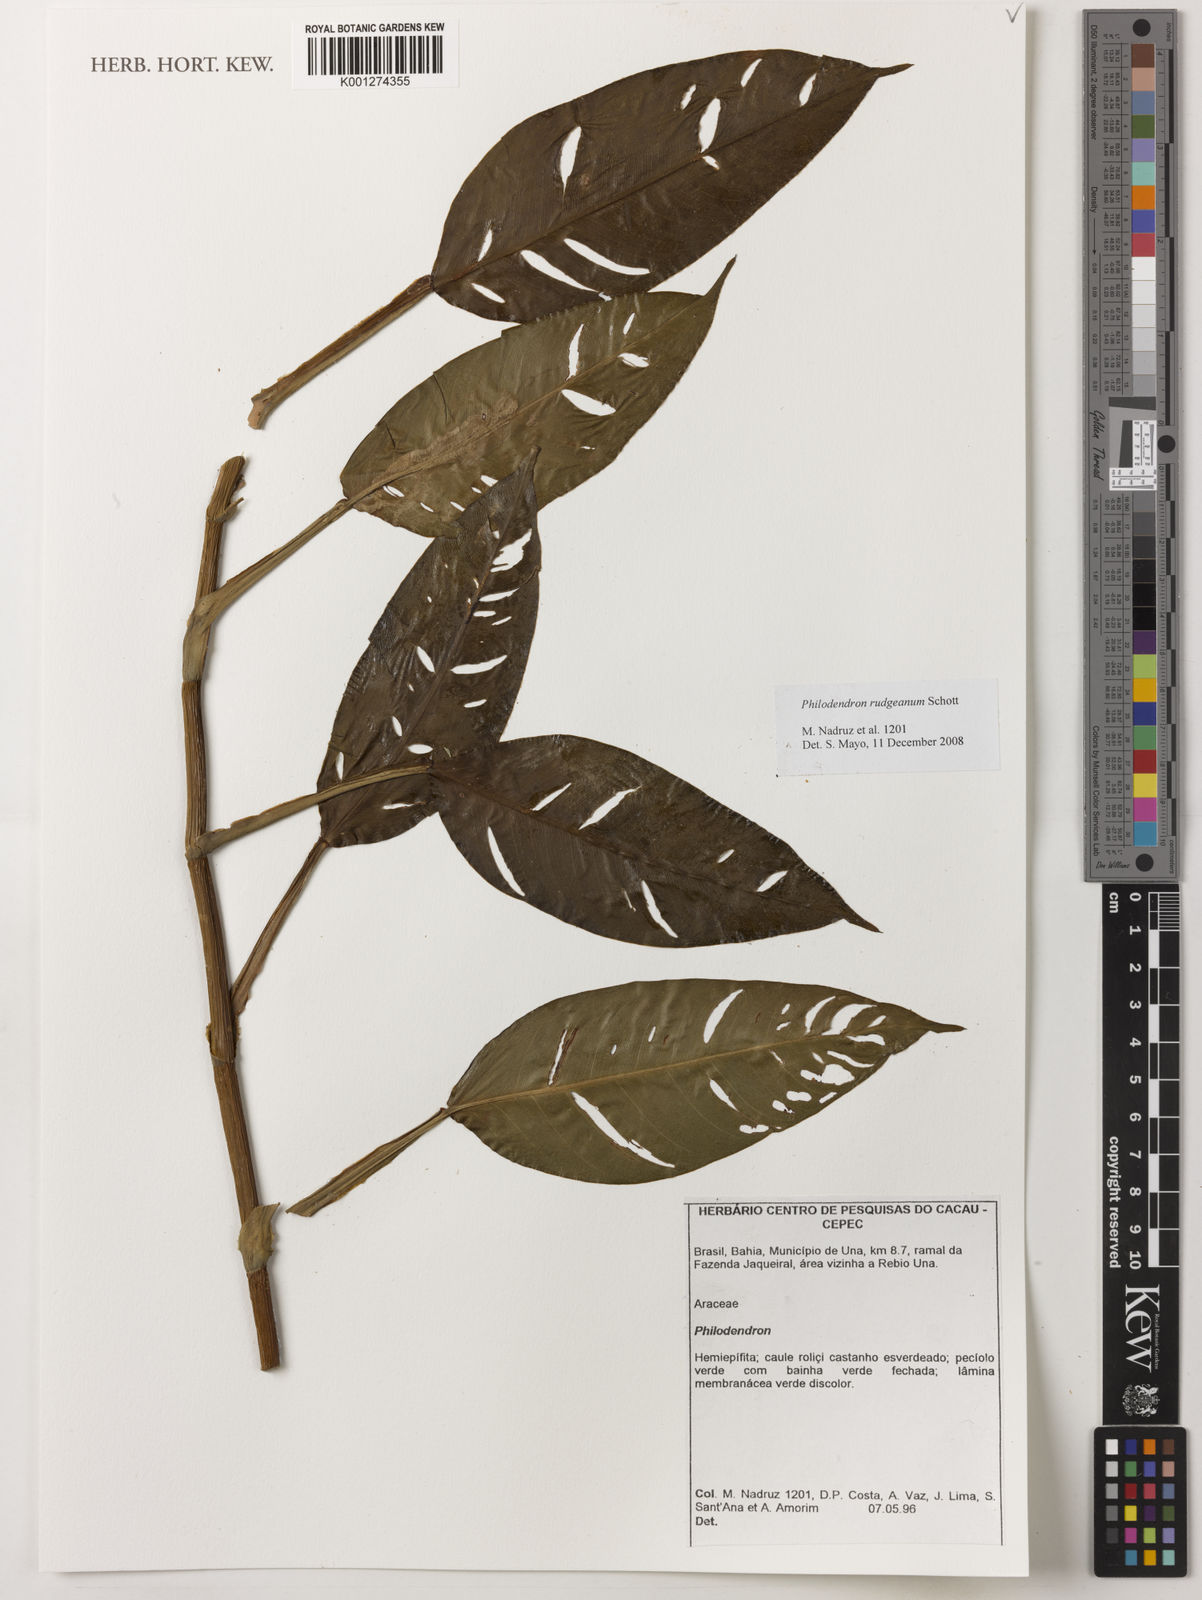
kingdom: Plantae
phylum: Tracheophyta
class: Liliopsida
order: Alismatales
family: Araceae
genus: Philodendron
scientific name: Philodendron rudgeanum
